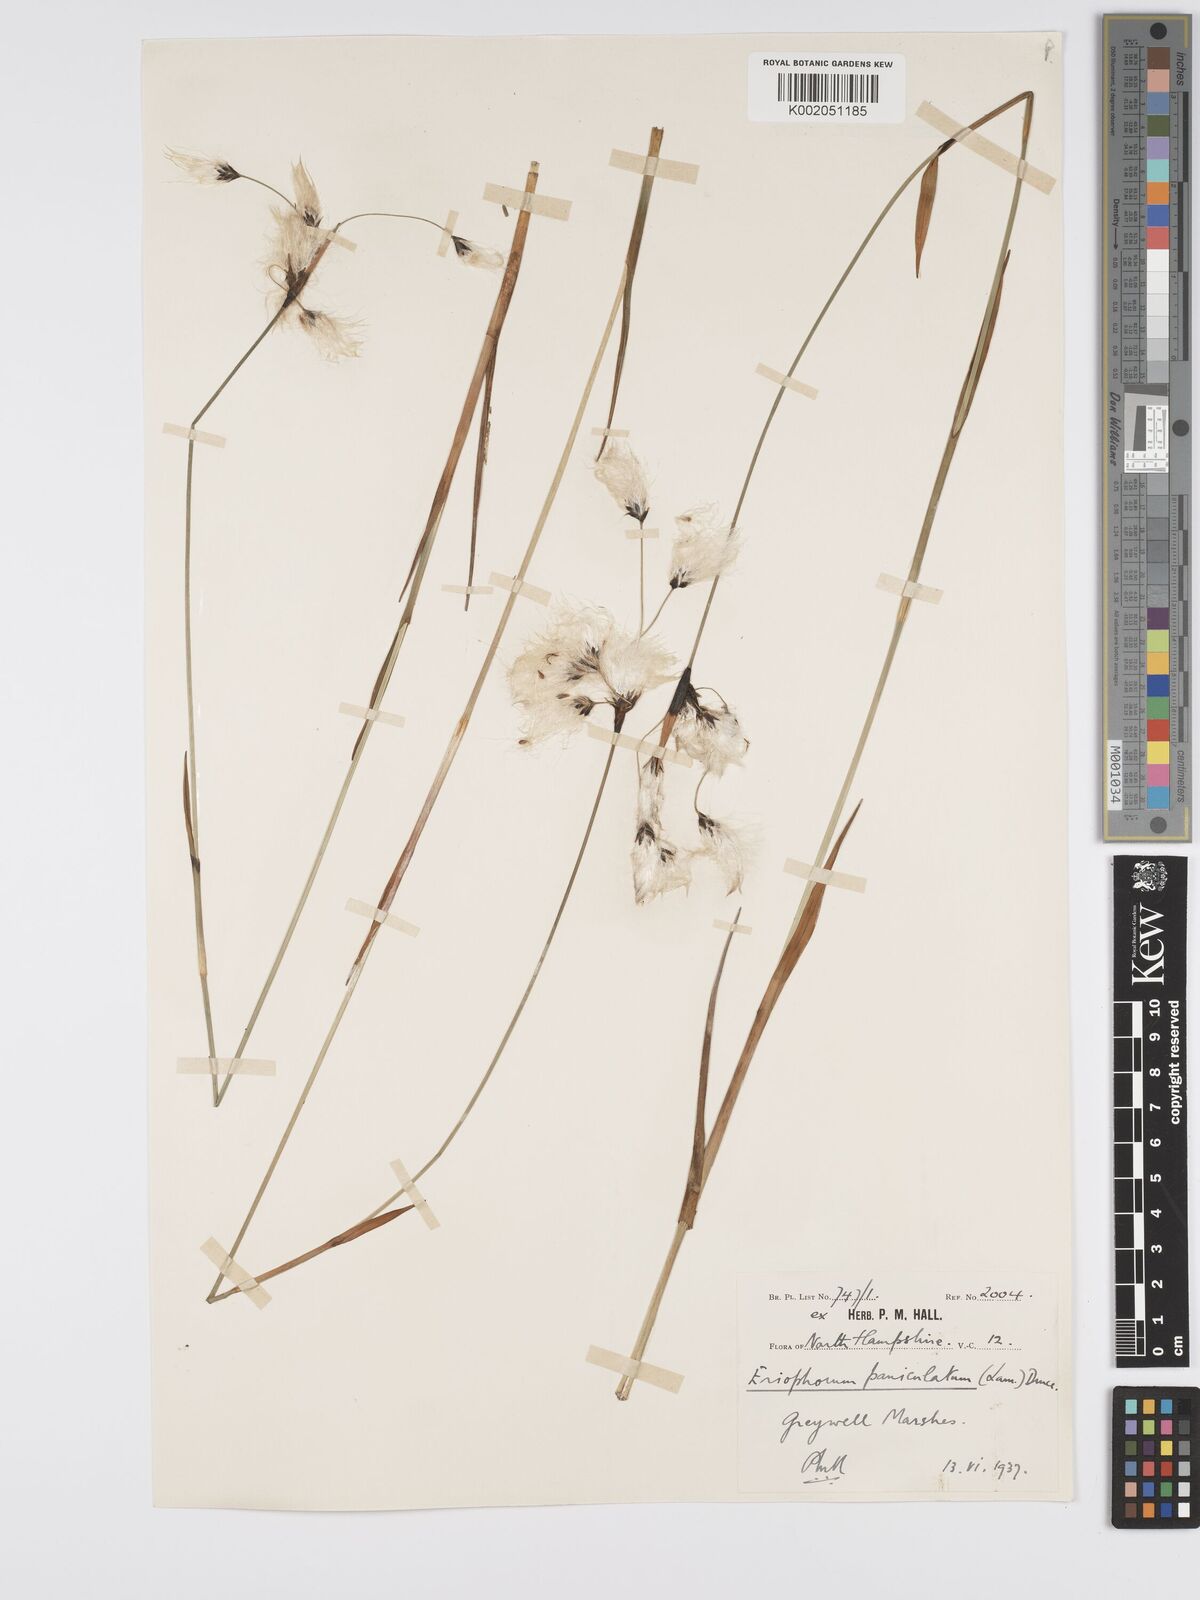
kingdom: Plantae
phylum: Tracheophyta
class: Liliopsida
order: Poales
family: Cyperaceae
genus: Eriophorum
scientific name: Eriophorum latifolium
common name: Broad-leaved cottongrass
